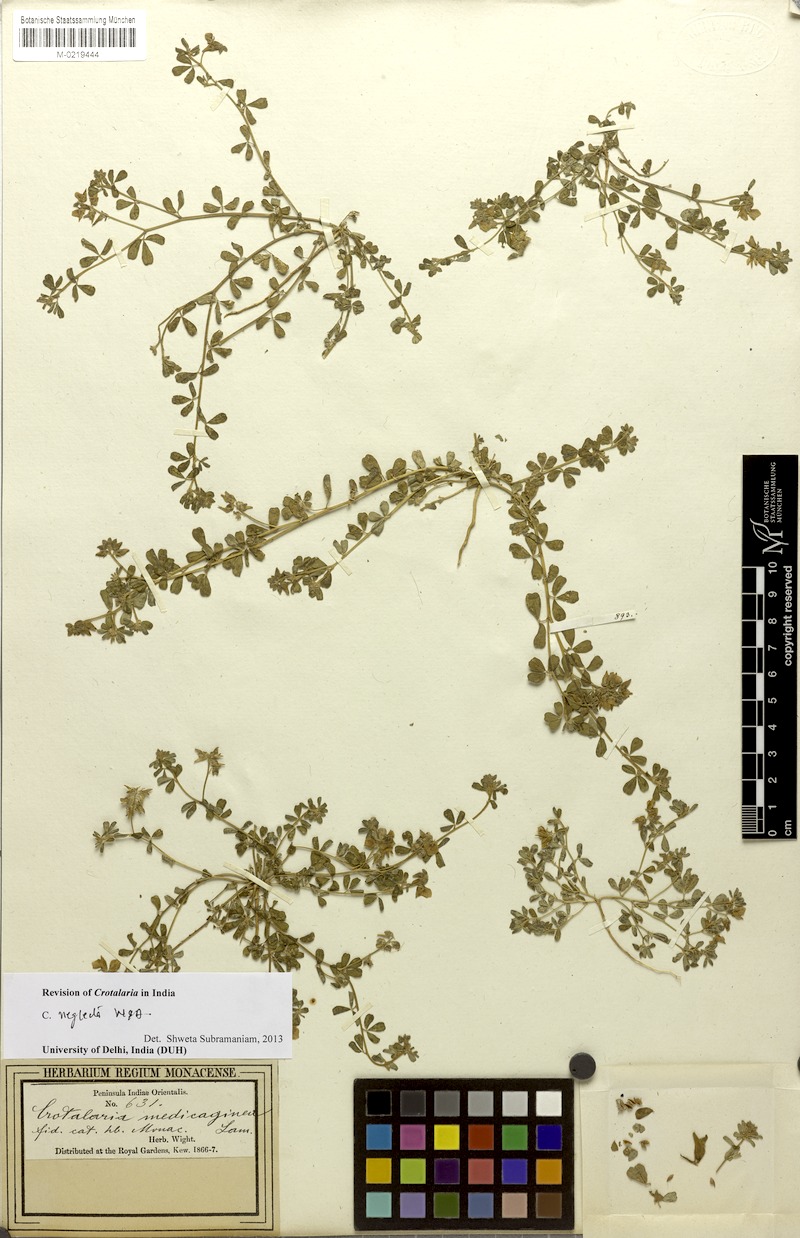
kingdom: Plantae
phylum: Tracheophyta
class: Magnoliopsida
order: Fabales
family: Fabaceae
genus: Crotalaria
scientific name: Crotalaria medicaginea
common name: Trefoil rattlepod
